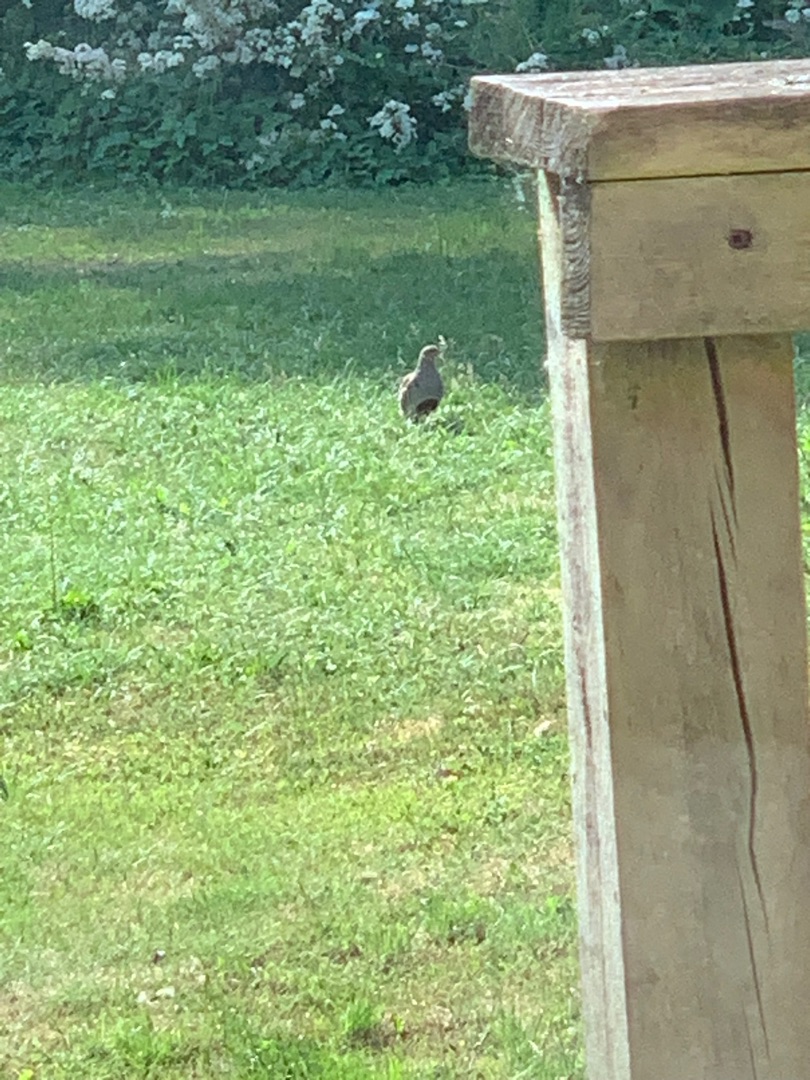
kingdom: Animalia
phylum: Chordata
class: Aves
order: Galliformes
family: Phasianidae
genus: Perdix
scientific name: Perdix perdix
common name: Agerhøne
